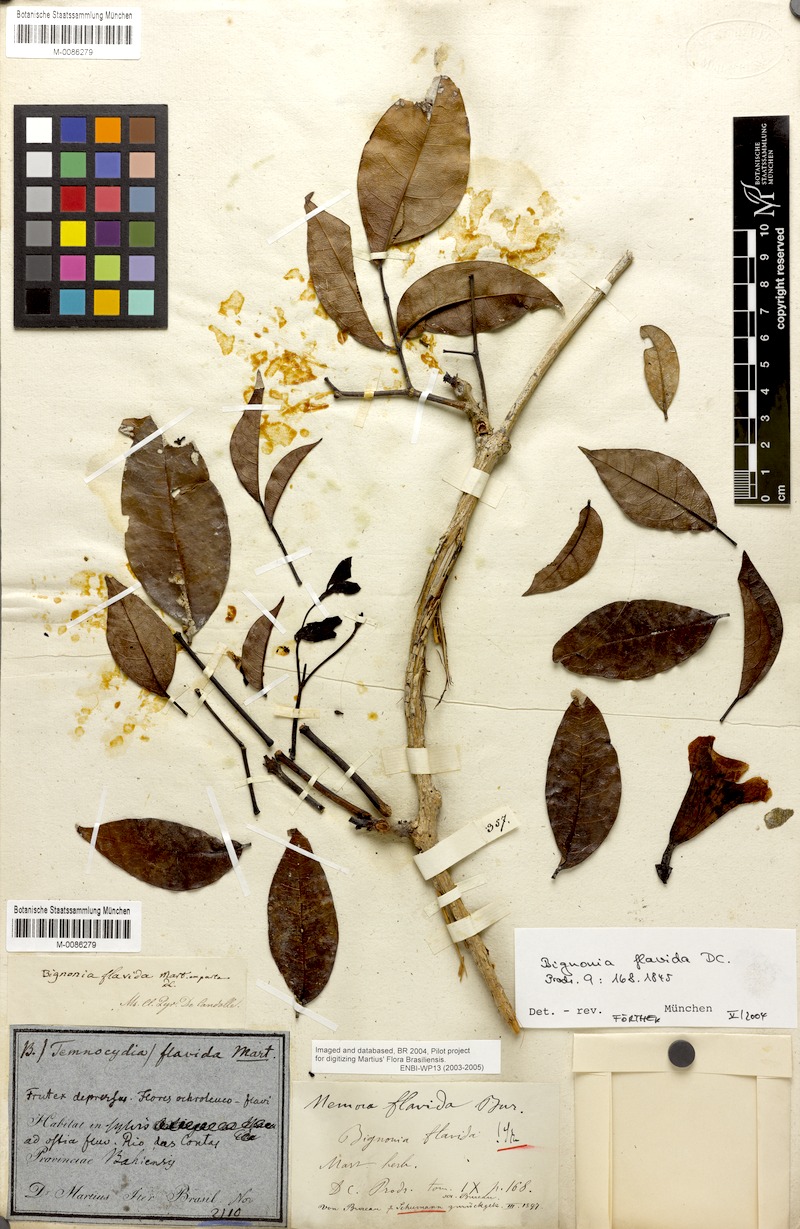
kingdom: Plantae
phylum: Tracheophyta
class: Magnoliopsida
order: Lamiales
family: Bignoniaceae
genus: Adenocalymma
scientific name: Adenocalymma neoflavidum
